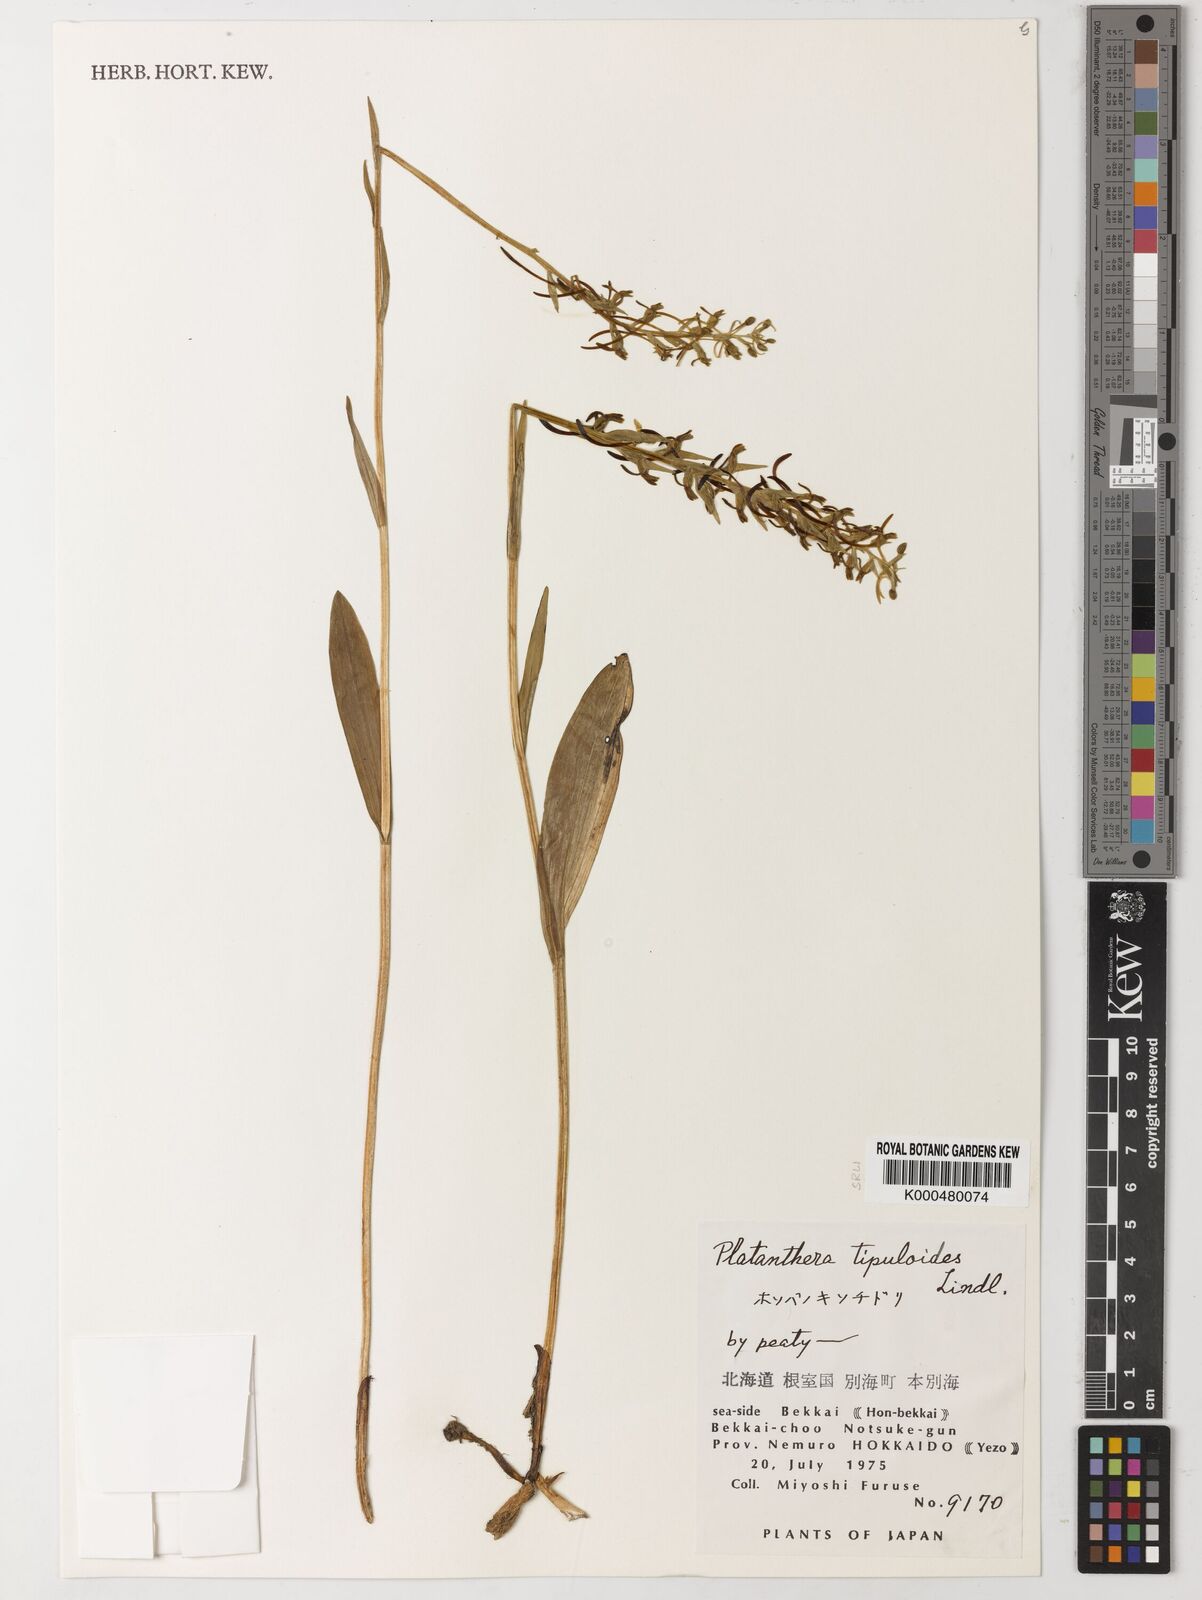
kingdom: Plantae
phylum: Tracheophyta
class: Liliopsida
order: Asparagales
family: Orchidaceae
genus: Platanthera
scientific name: Platanthera tipuloides
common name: Aleutian bog orchid
